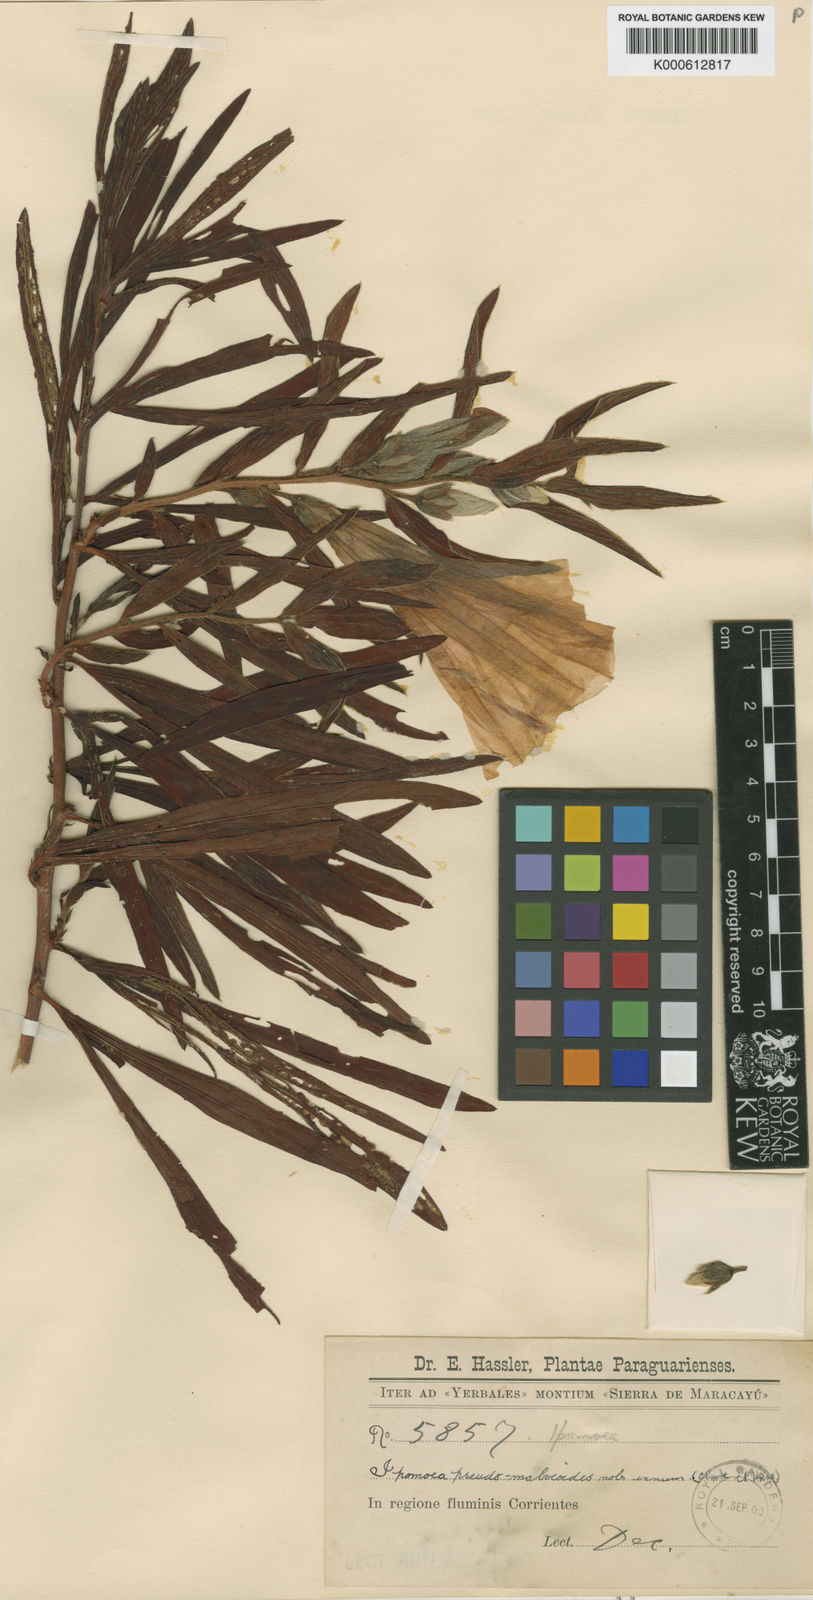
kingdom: Plantae
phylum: Tracheophyta
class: Magnoliopsida
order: Solanales
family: Convolvulaceae
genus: Ipomoea
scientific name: Ipomoea pseudomalvaeoides
